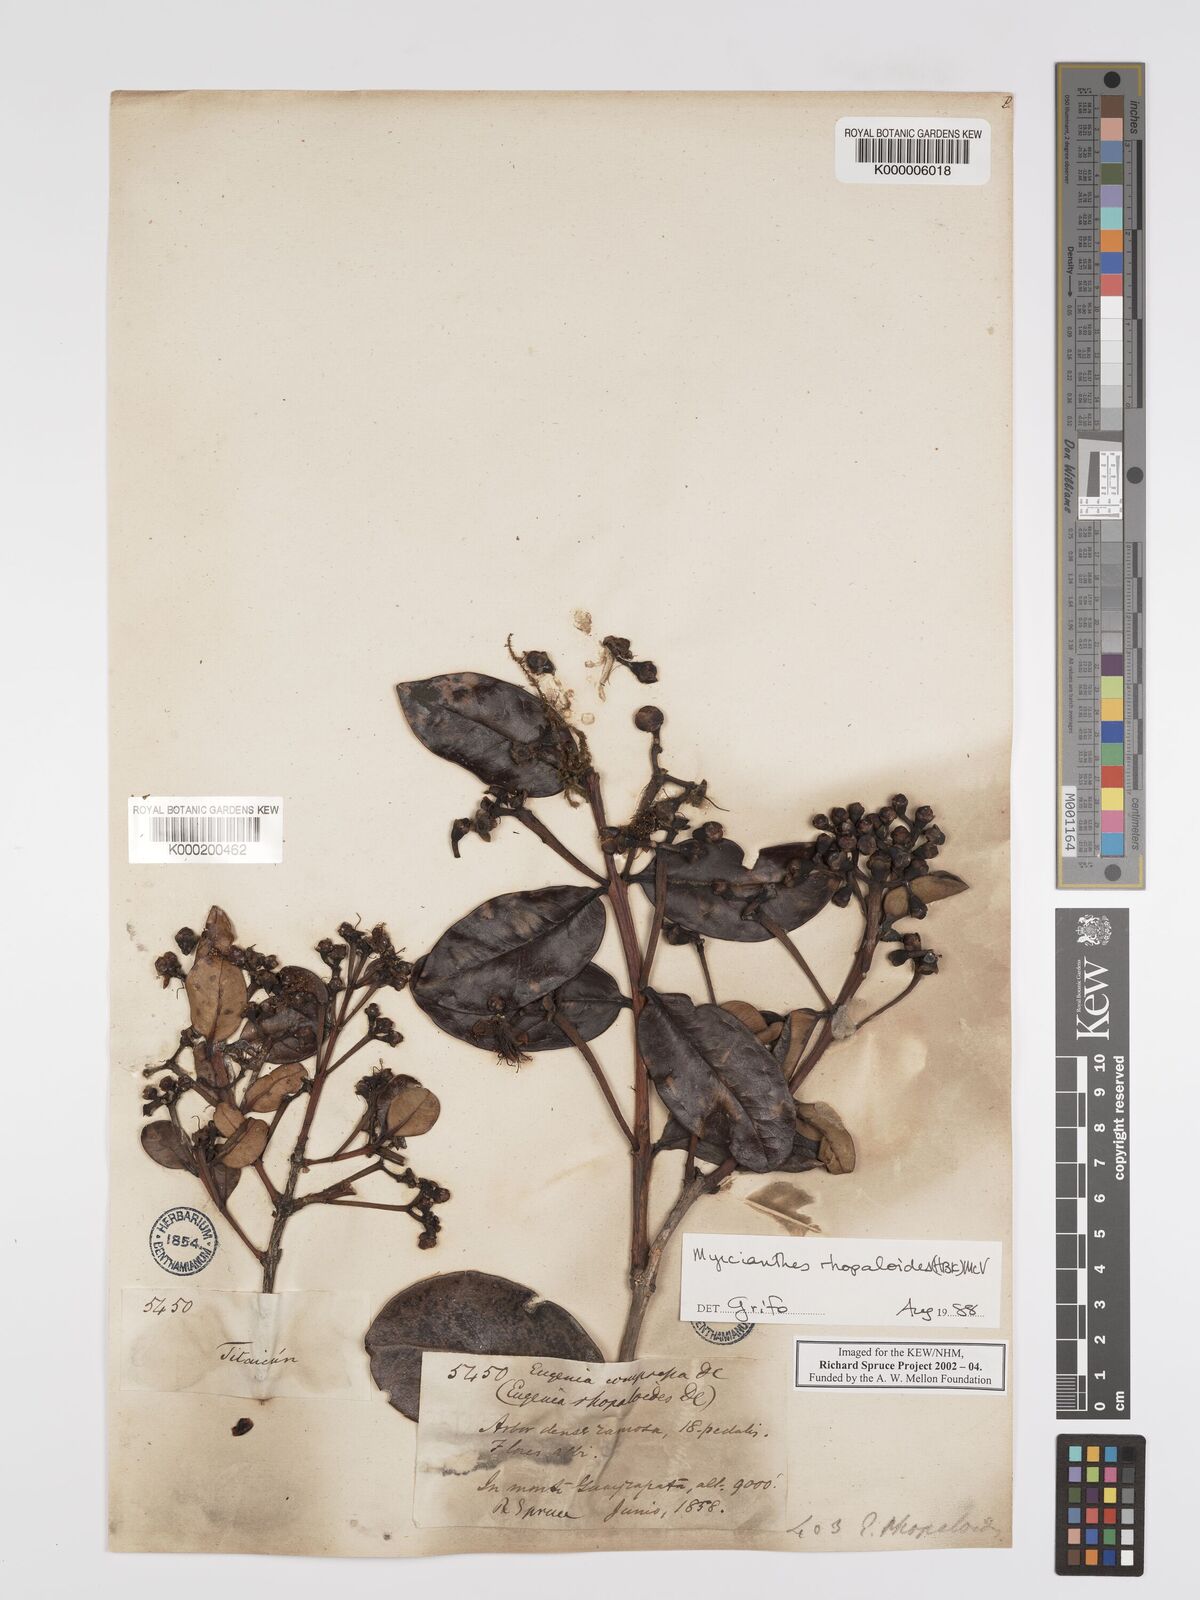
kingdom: Plantae
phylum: Tracheophyta
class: Magnoliopsida
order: Myrtales
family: Myrtaceae
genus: Myrcianthes
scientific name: Myrcianthes rhopaloides
